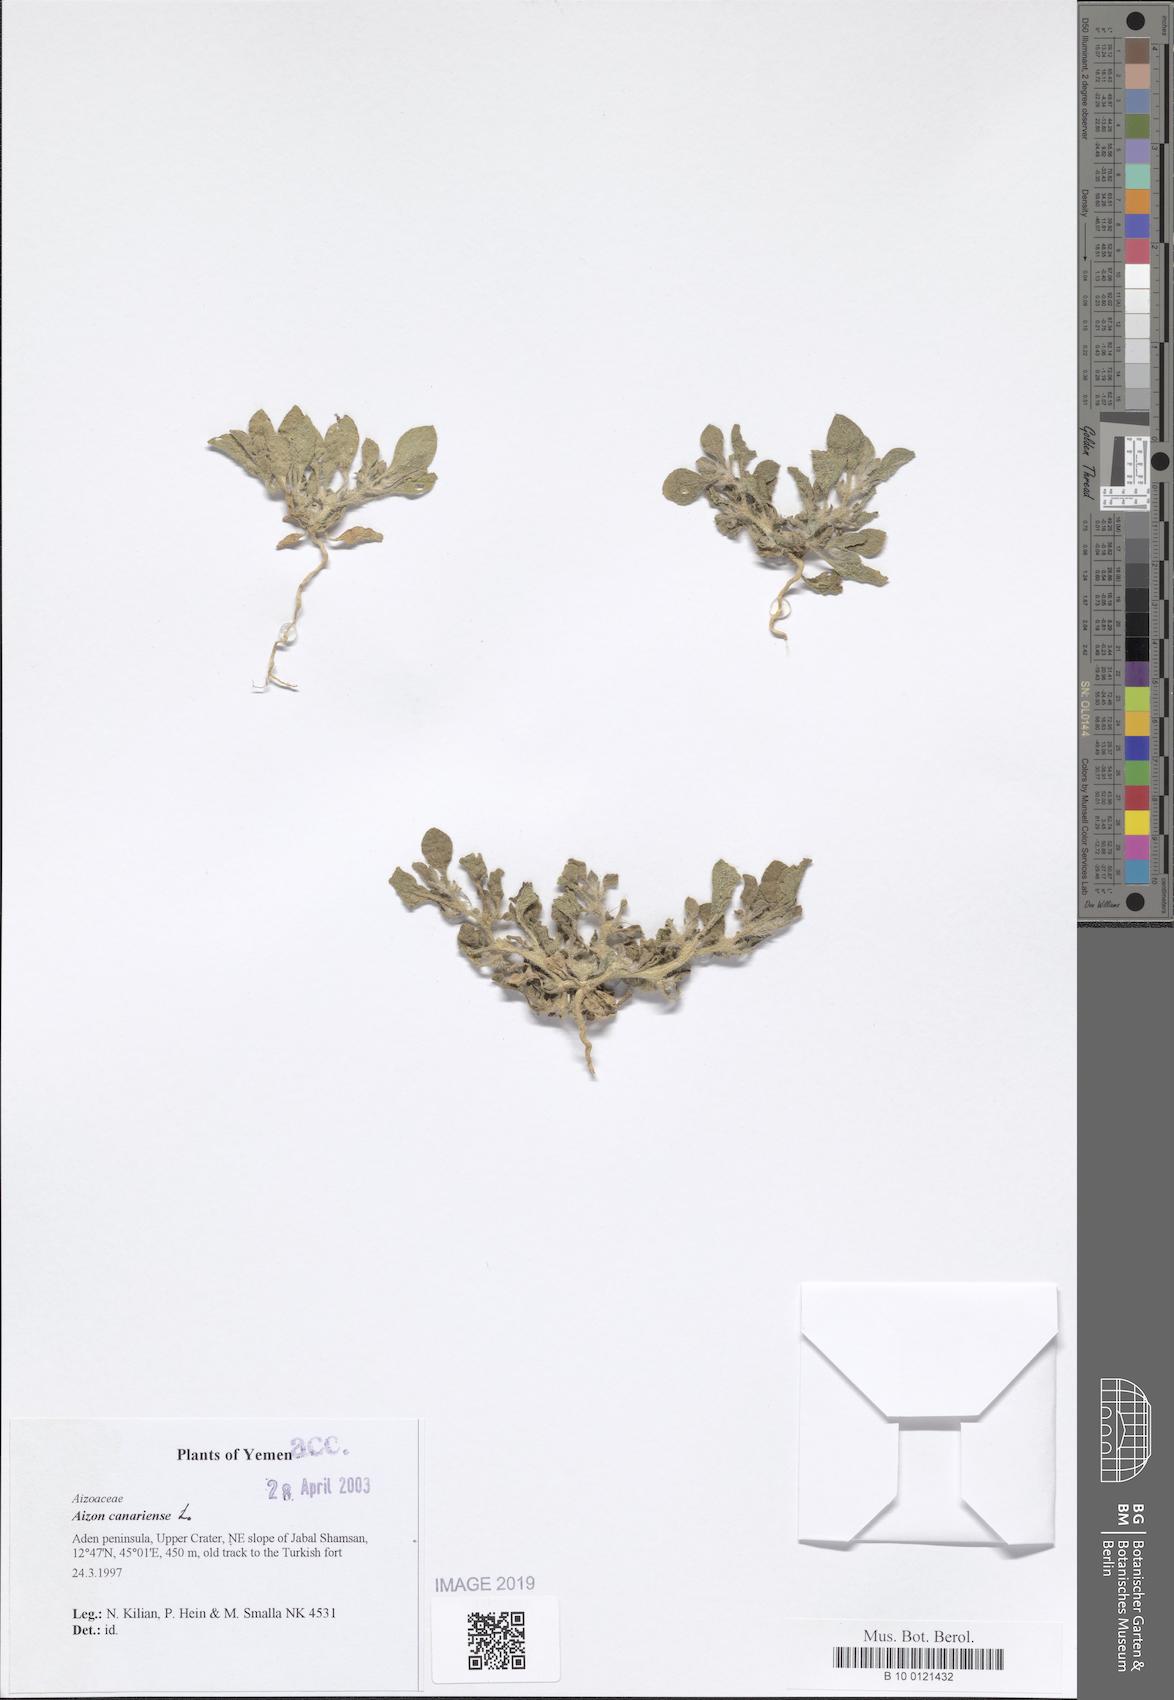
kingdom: Plantae
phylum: Tracheophyta
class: Magnoliopsida
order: Caryophyllales
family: Aizoaceae
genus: Aizoon
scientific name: Aizoon canariense
